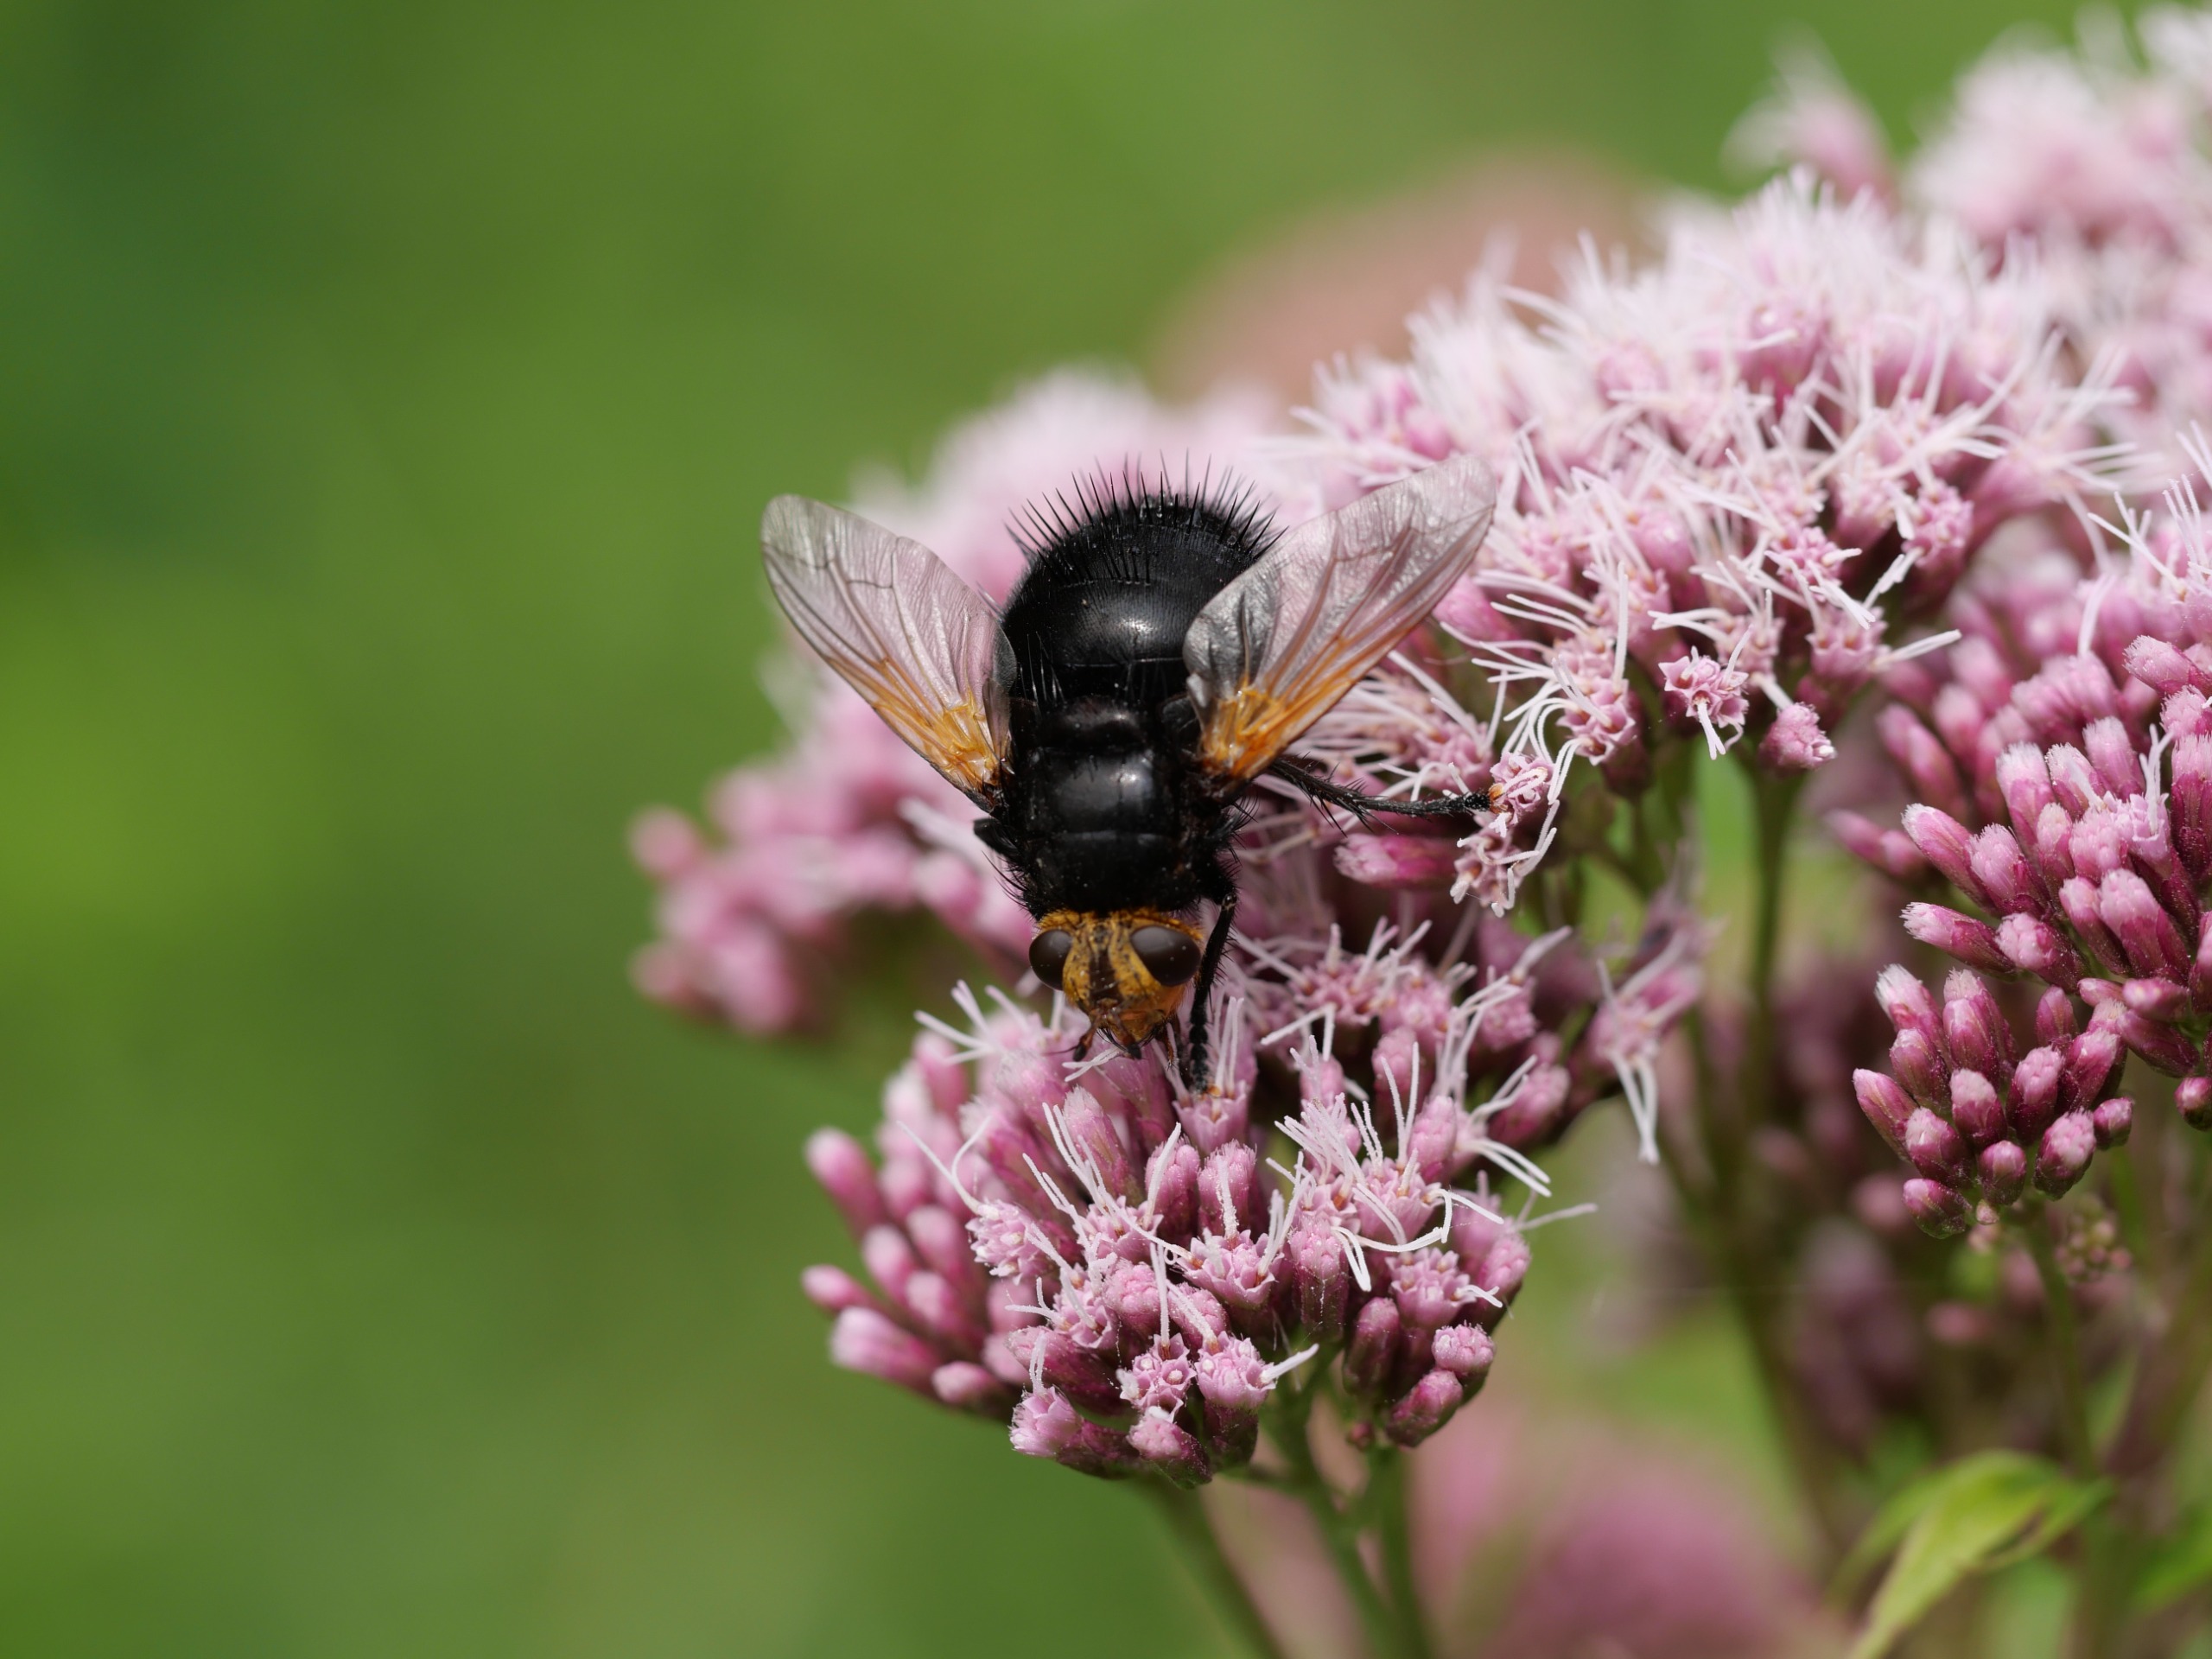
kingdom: Animalia
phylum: Arthropoda
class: Insecta
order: Diptera
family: Tachinidae
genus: Tachina
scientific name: Tachina grossa
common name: Kæmpefluen Harald
